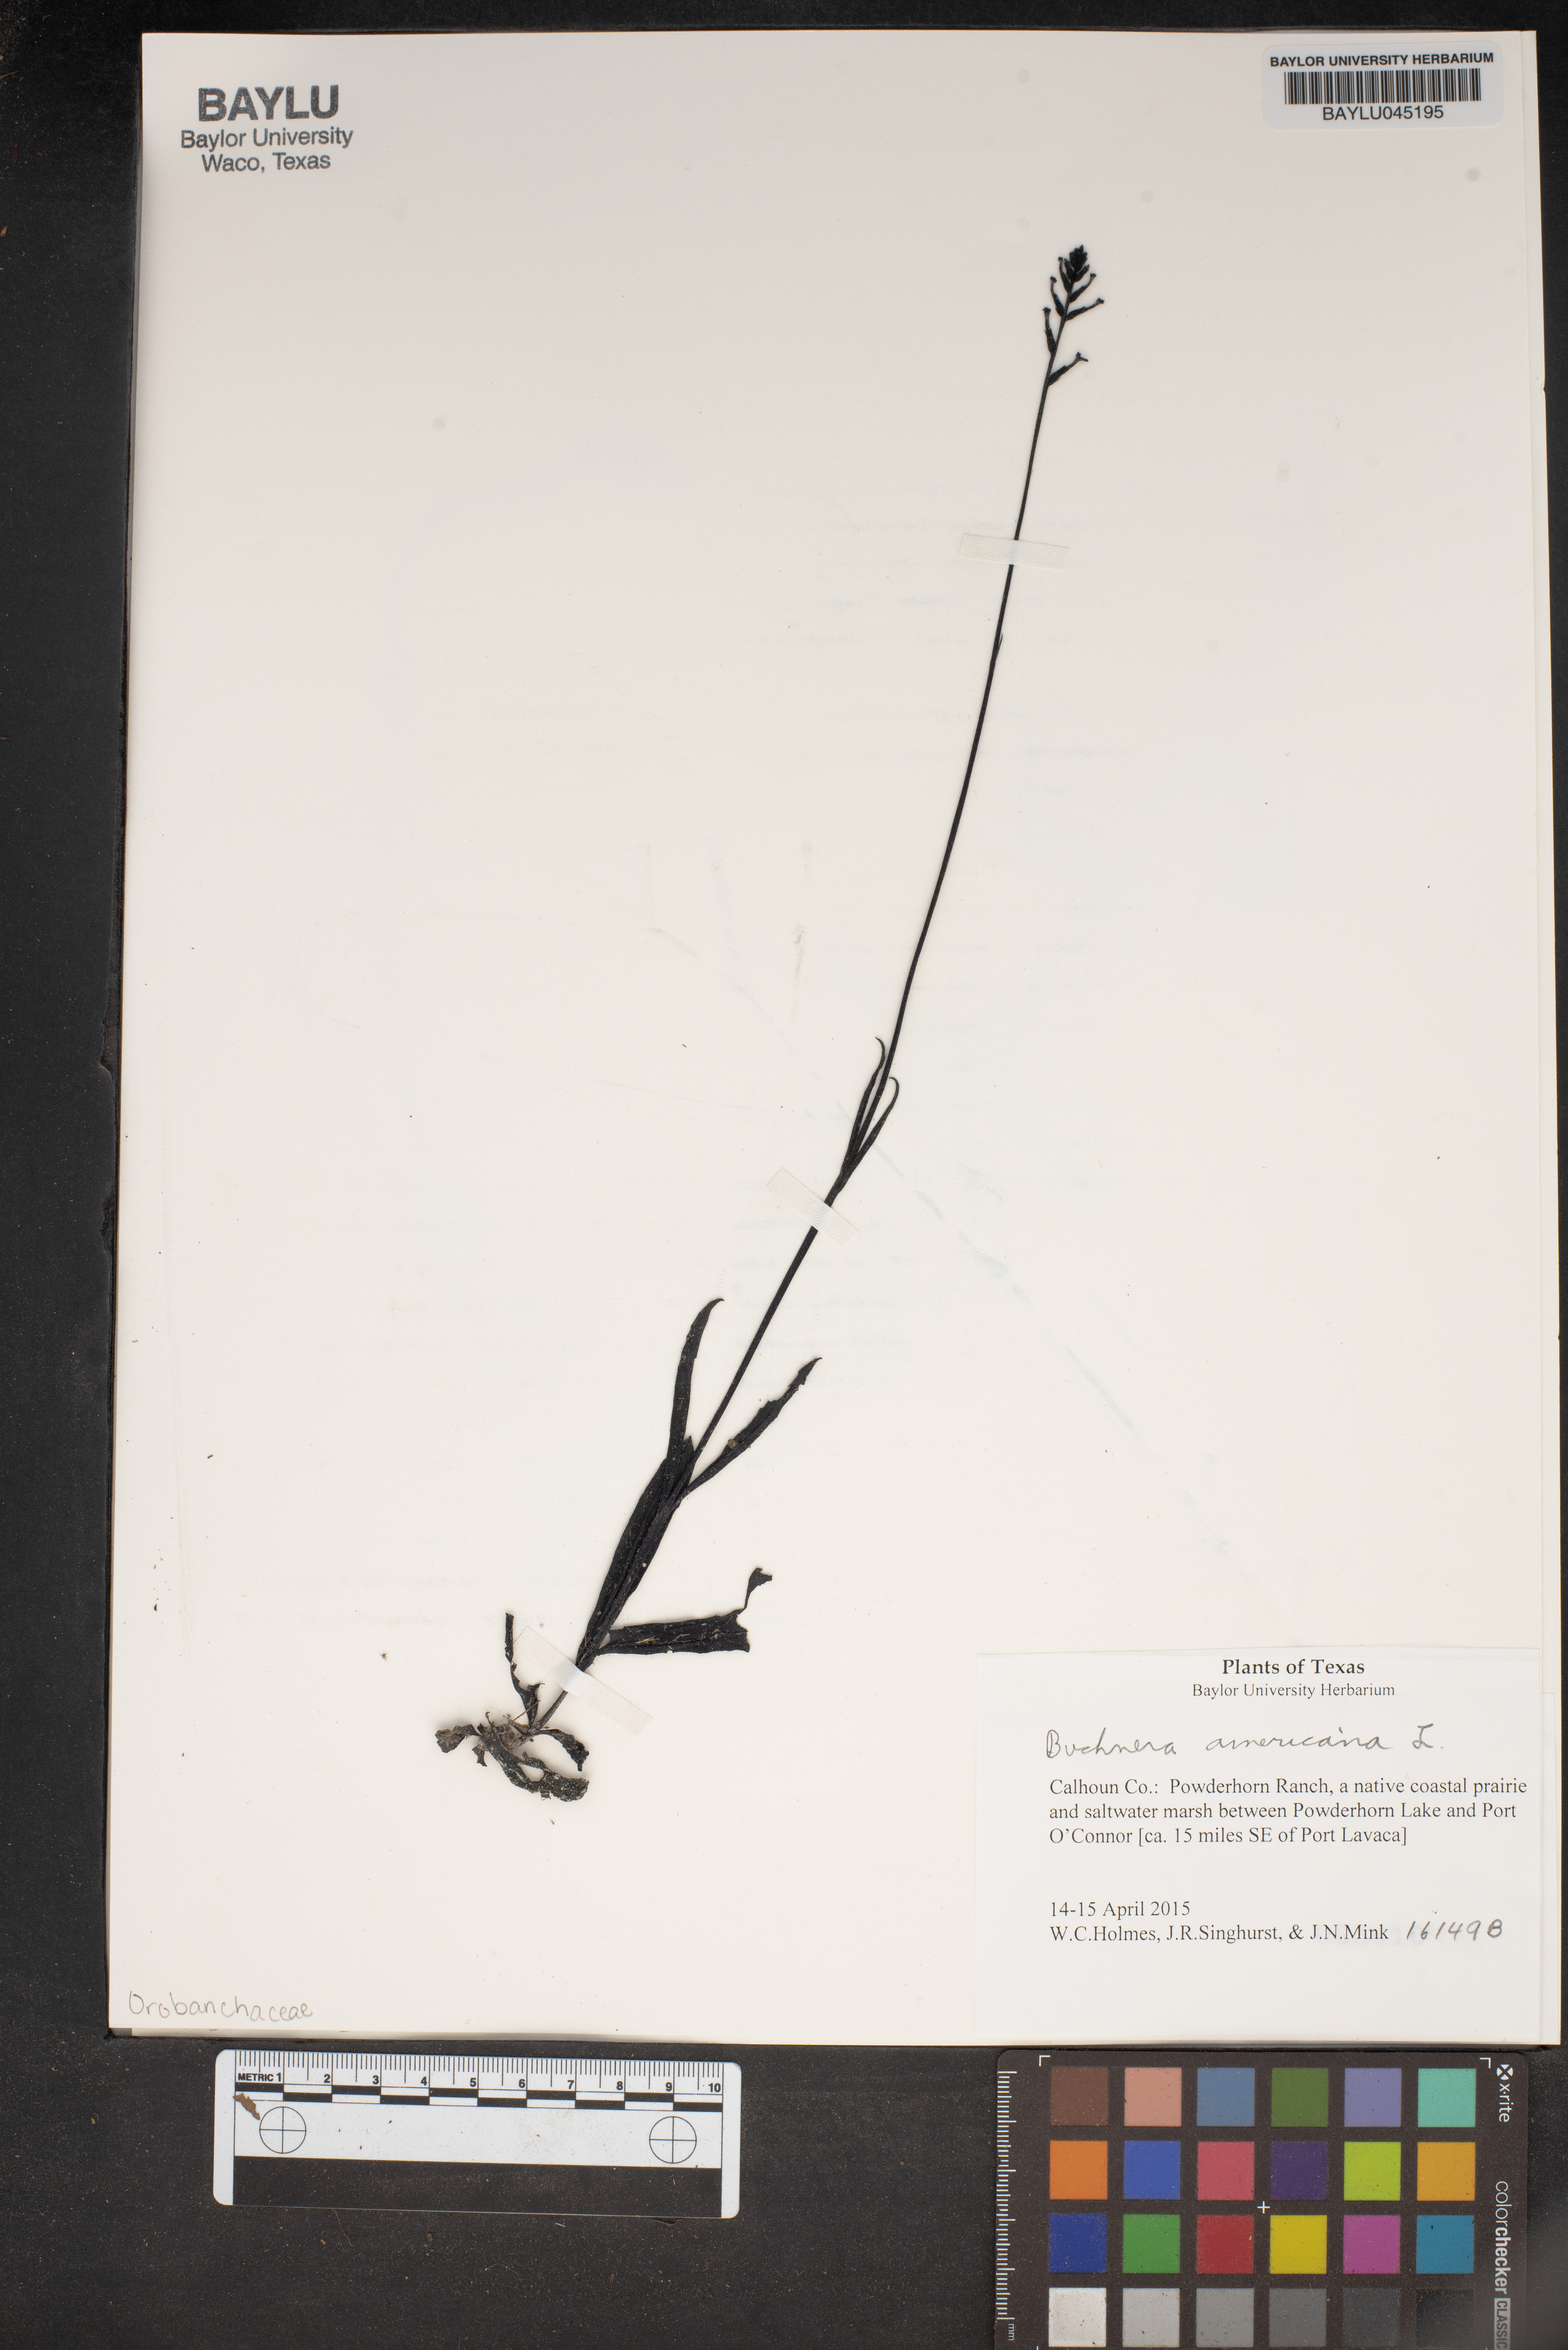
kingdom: Plantae
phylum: Tracheophyta
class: Magnoliopsida
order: Lamiales
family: Orobanchaceae
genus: Buchnera
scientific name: Buchnera americana
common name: American bluehearts
